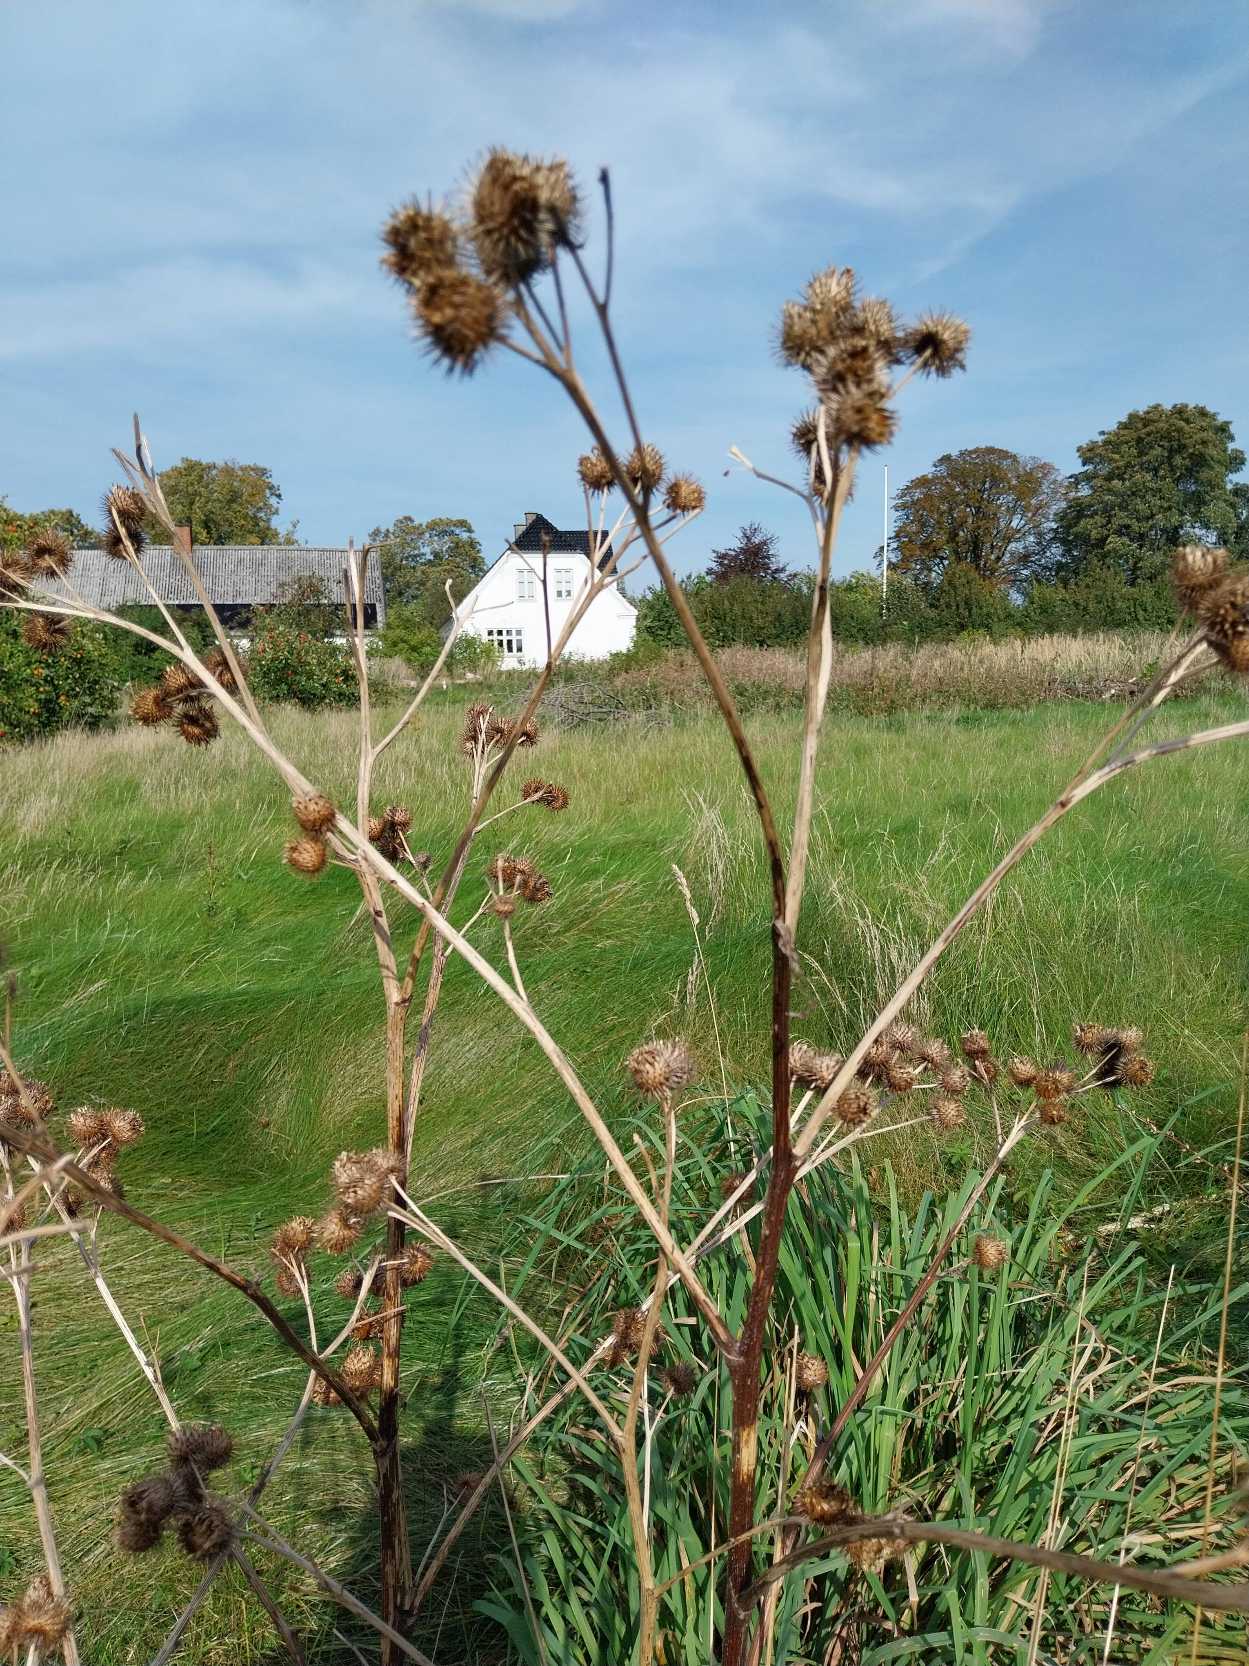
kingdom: Plantae
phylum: Tracheophyta
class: Magnoliopsida
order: Asterales
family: Asteraceae
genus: Arctium
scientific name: Arctium tomentosum
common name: Filtet burre
